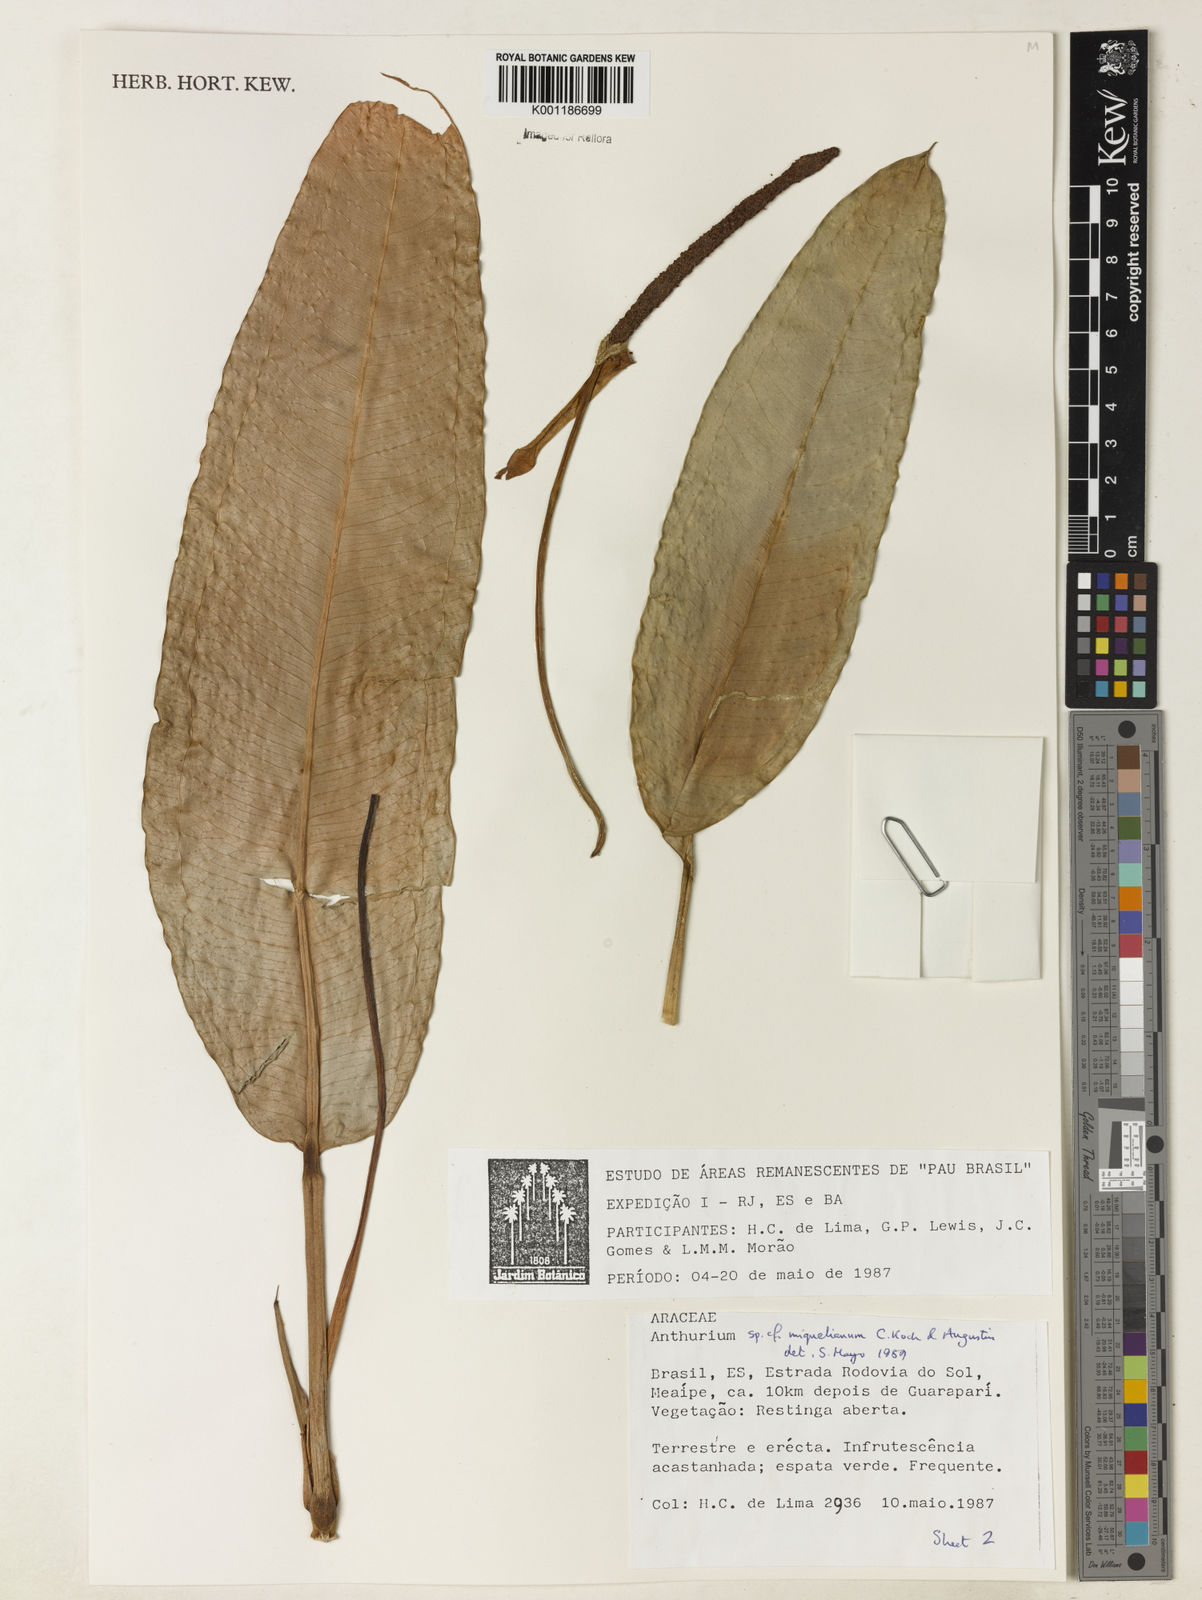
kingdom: Plantae
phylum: Tracheophyta
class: Liliopsida
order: Alismatales
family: Araceae
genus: Anthurium
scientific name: Anthurium parasiticum
